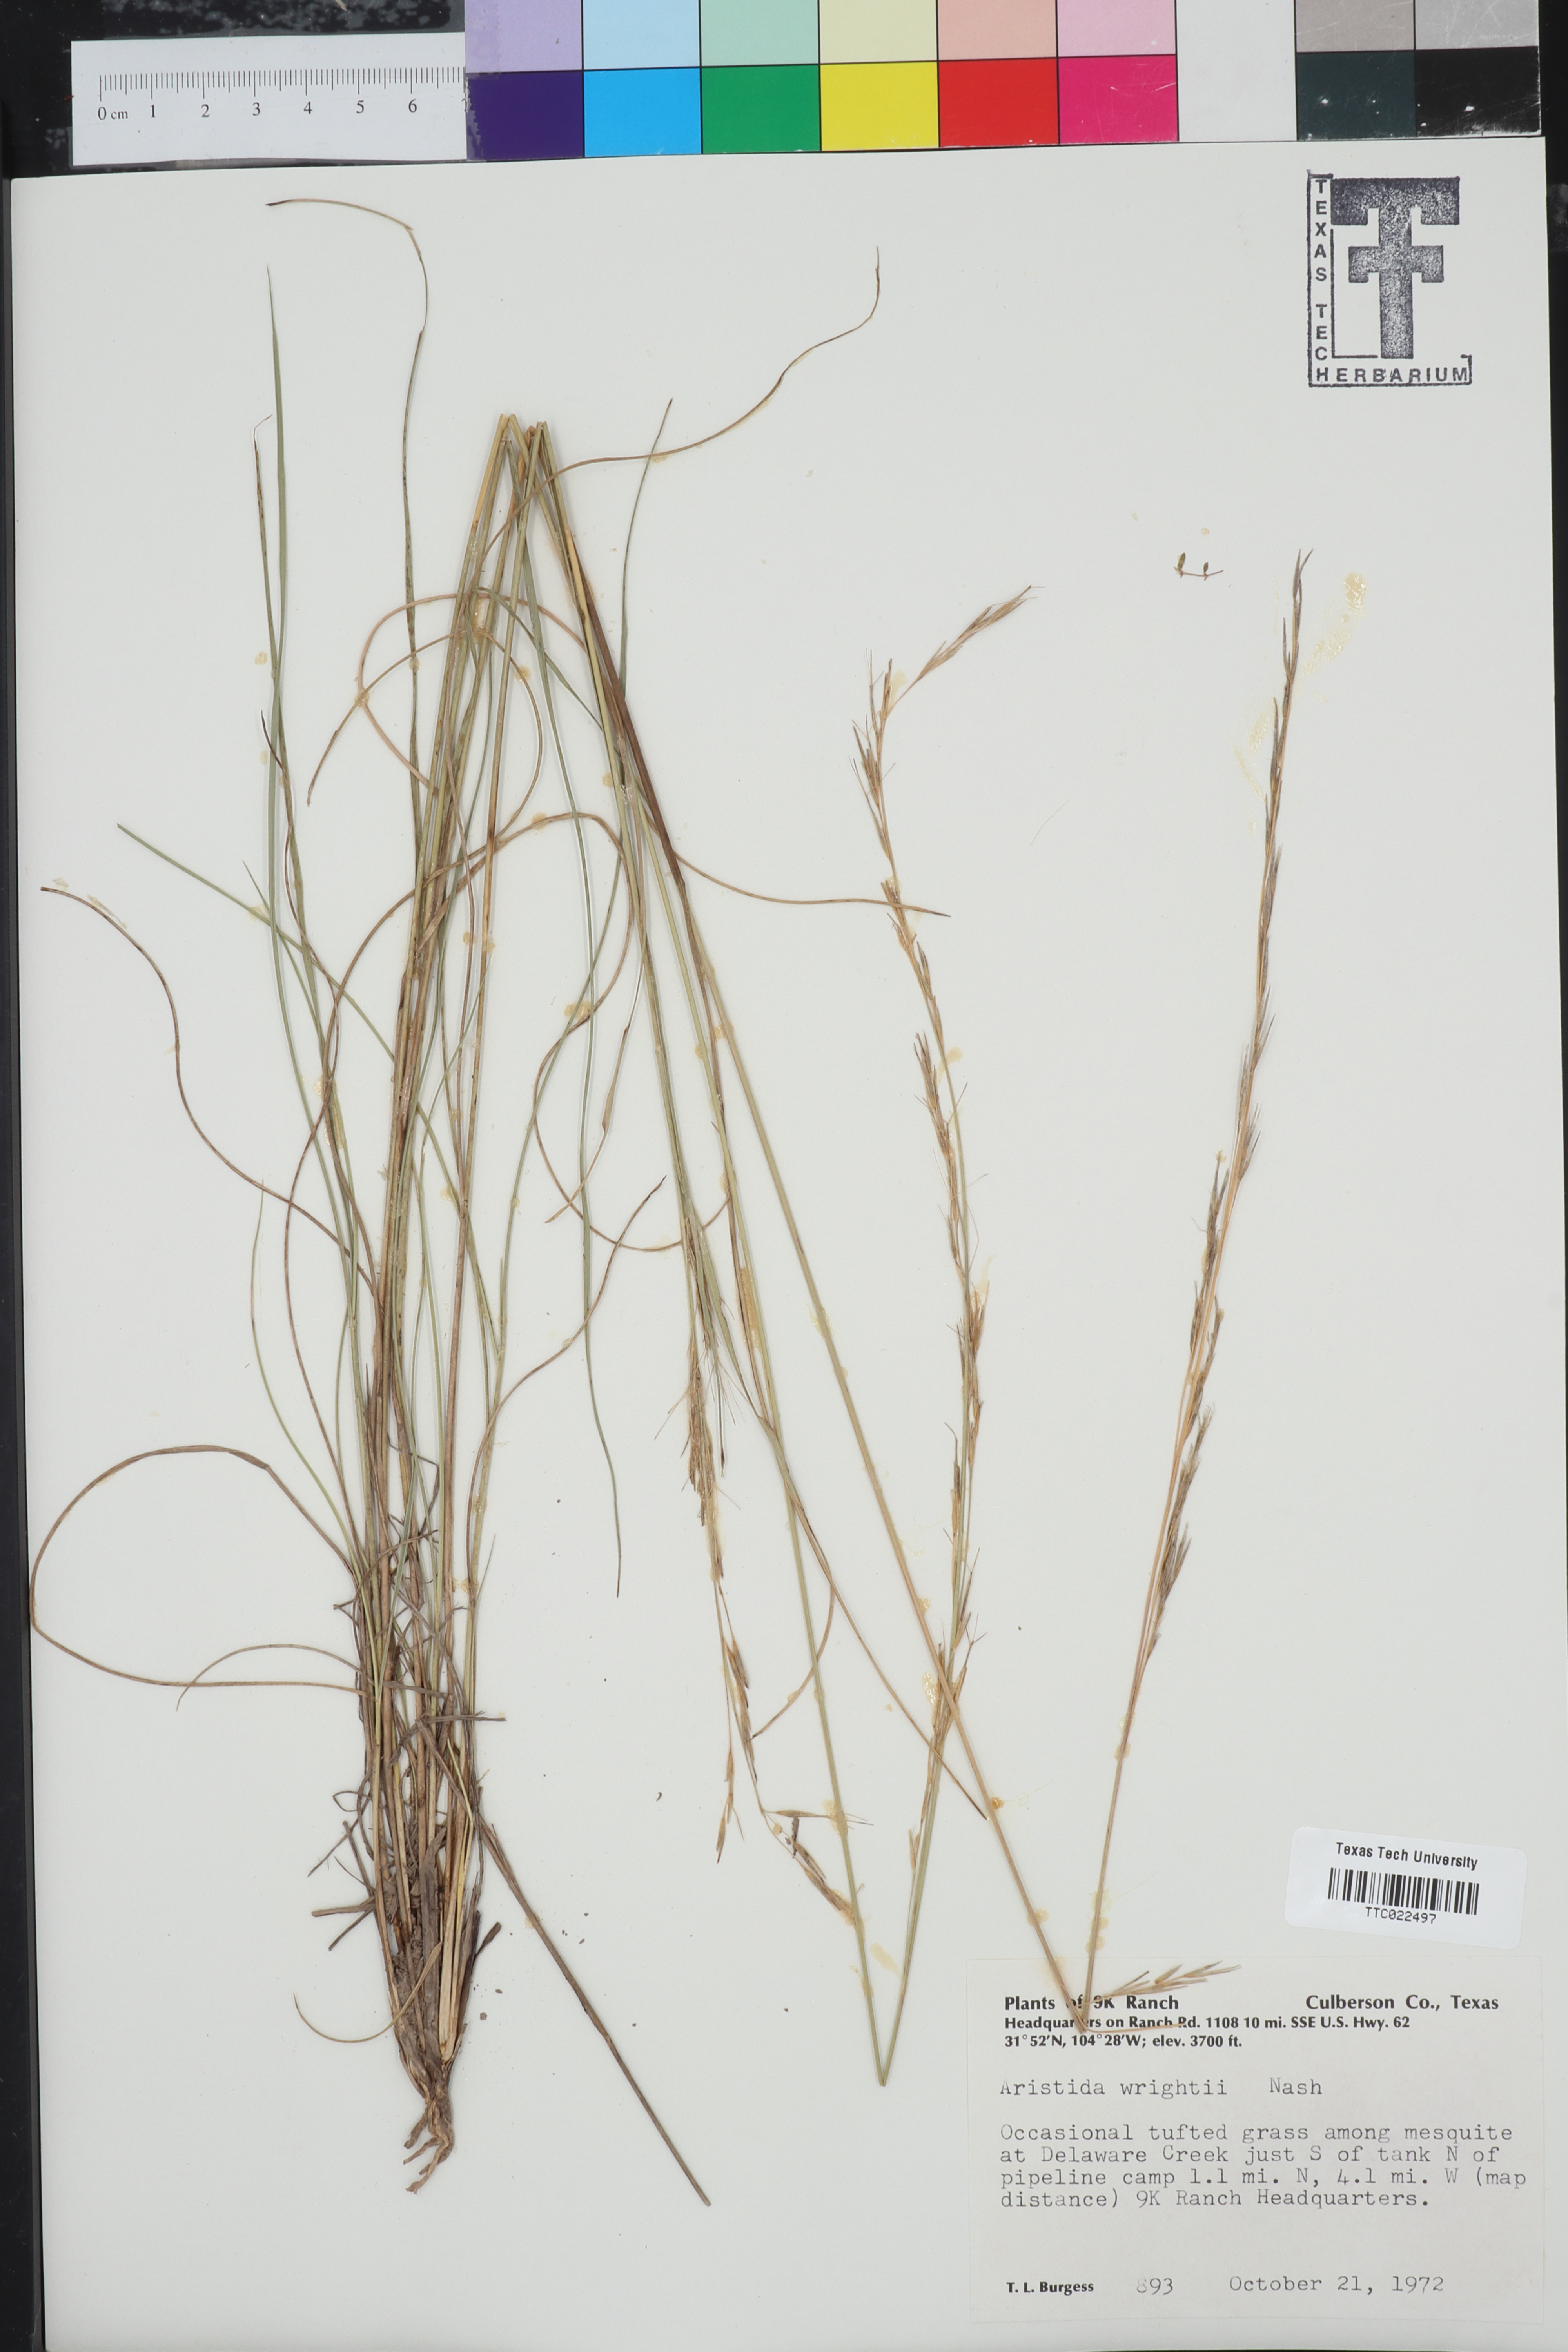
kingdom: Plantae
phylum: Tracheophyta
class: Liliopsida
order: Poales
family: Poaceae
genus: Aristida
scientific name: Aristida wrightii
